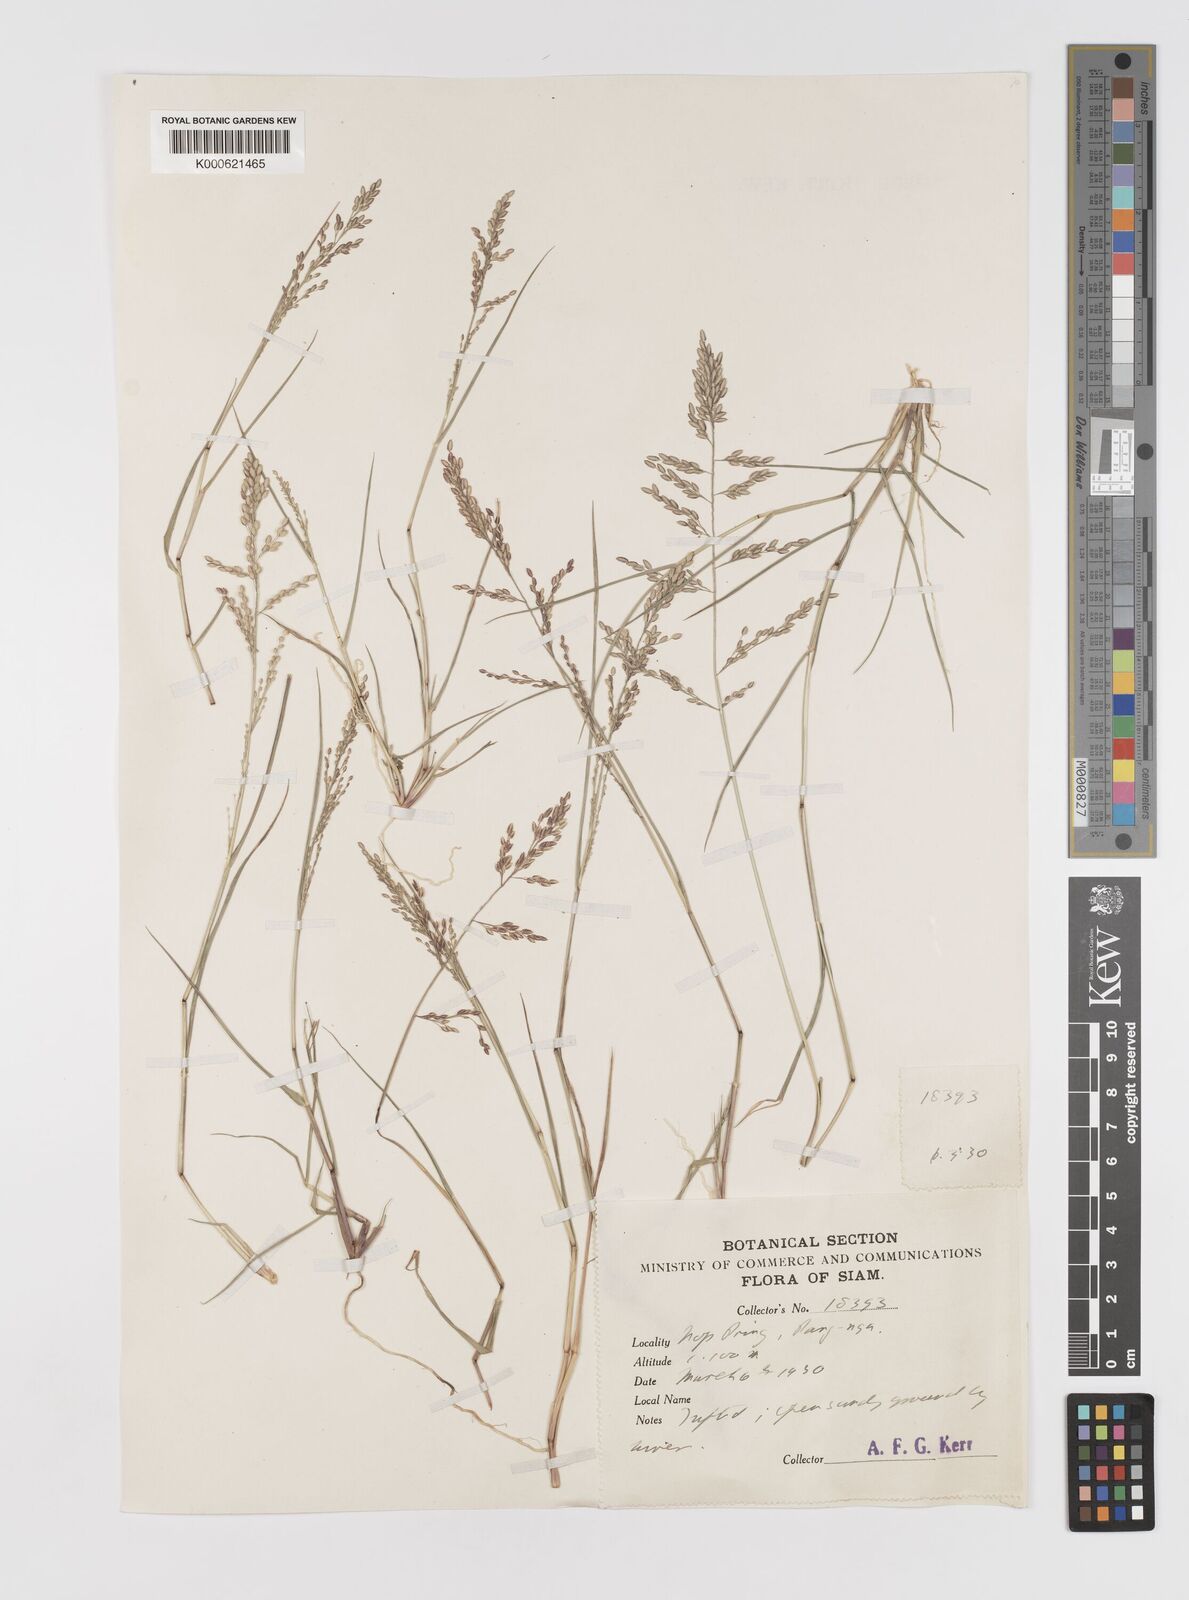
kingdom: Plantae
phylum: Tracheophyta
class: Liliopsida
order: Poales
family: Poaceae
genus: Eragrostis
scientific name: Eragrostis montana
